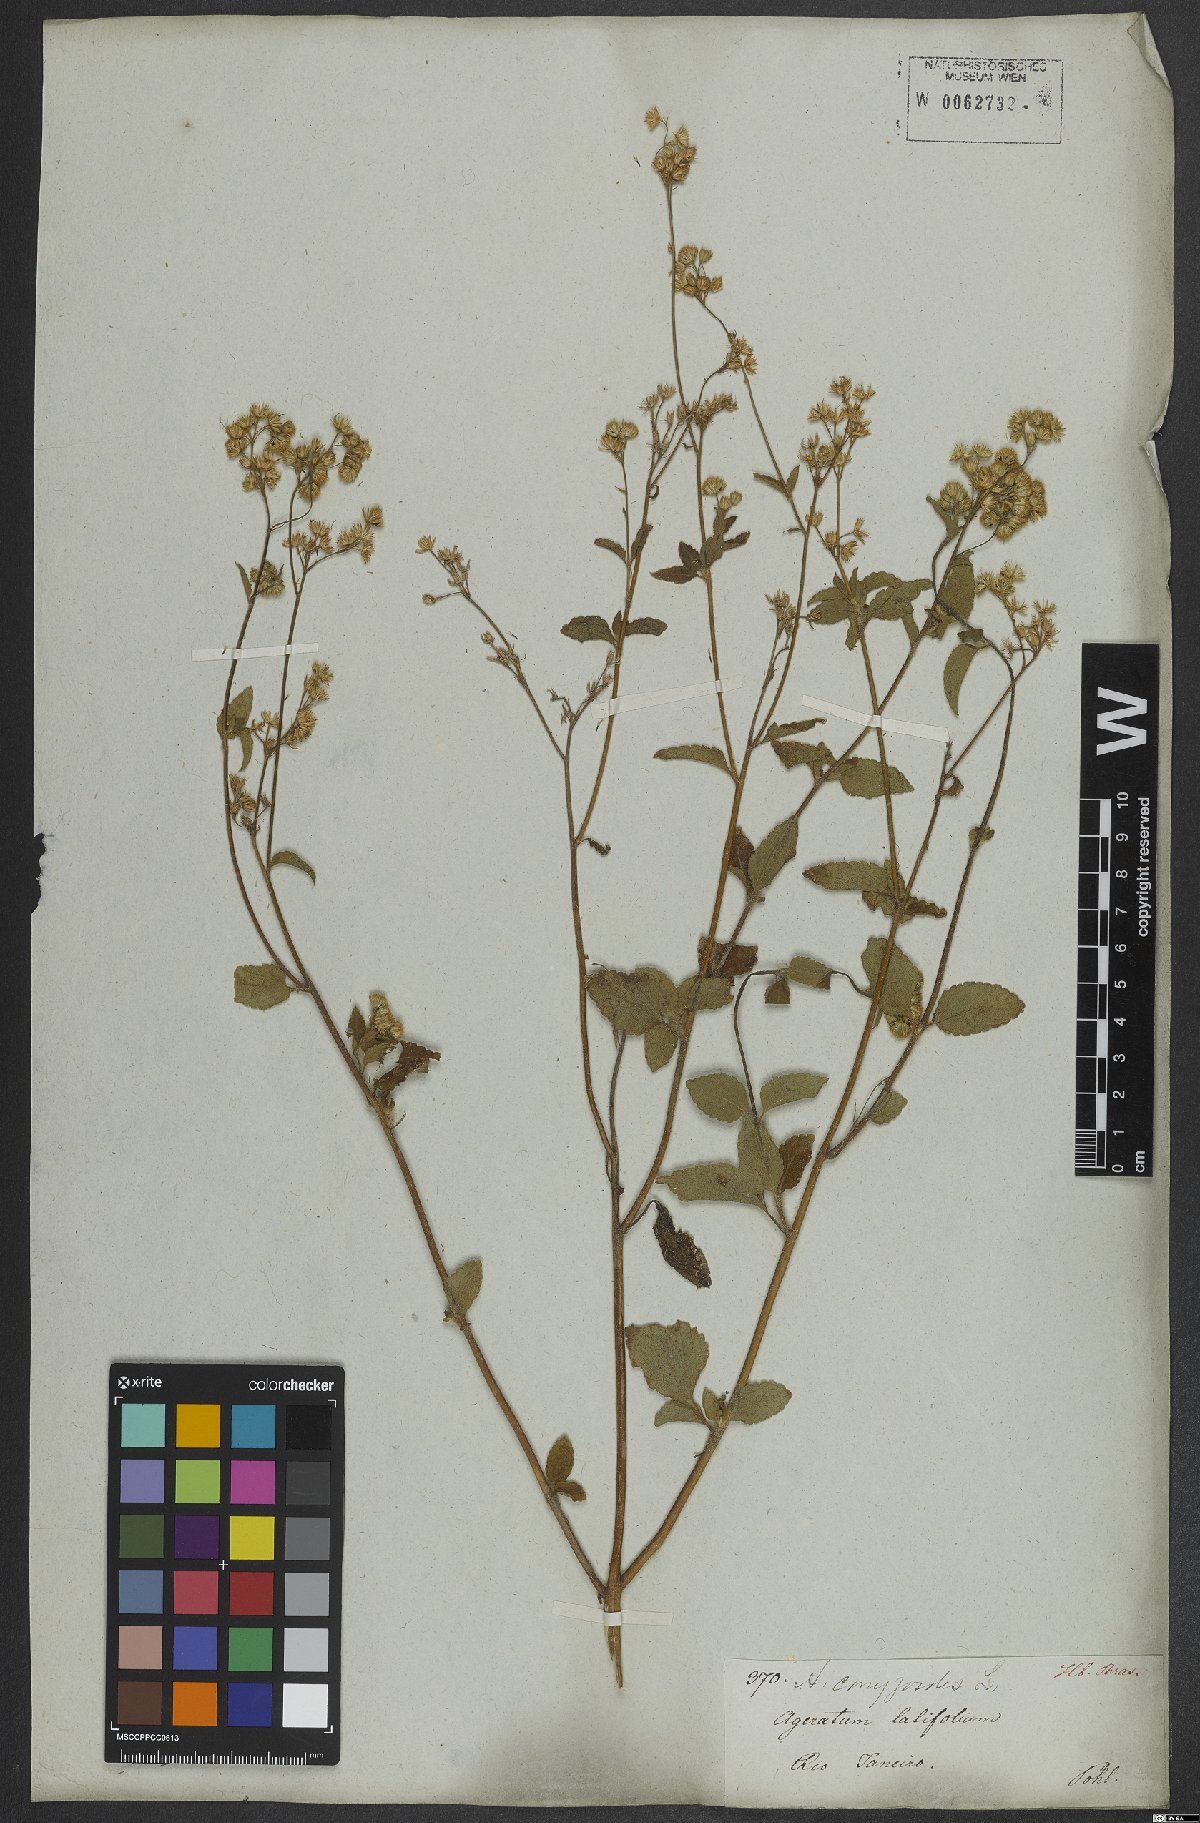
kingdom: Plantae
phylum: Tracheophyta
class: Magnoliopsida
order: Asterales
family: Asteraceae
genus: Ageratum
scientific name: Ageratum conyzoides
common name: Tropical whiteweed
